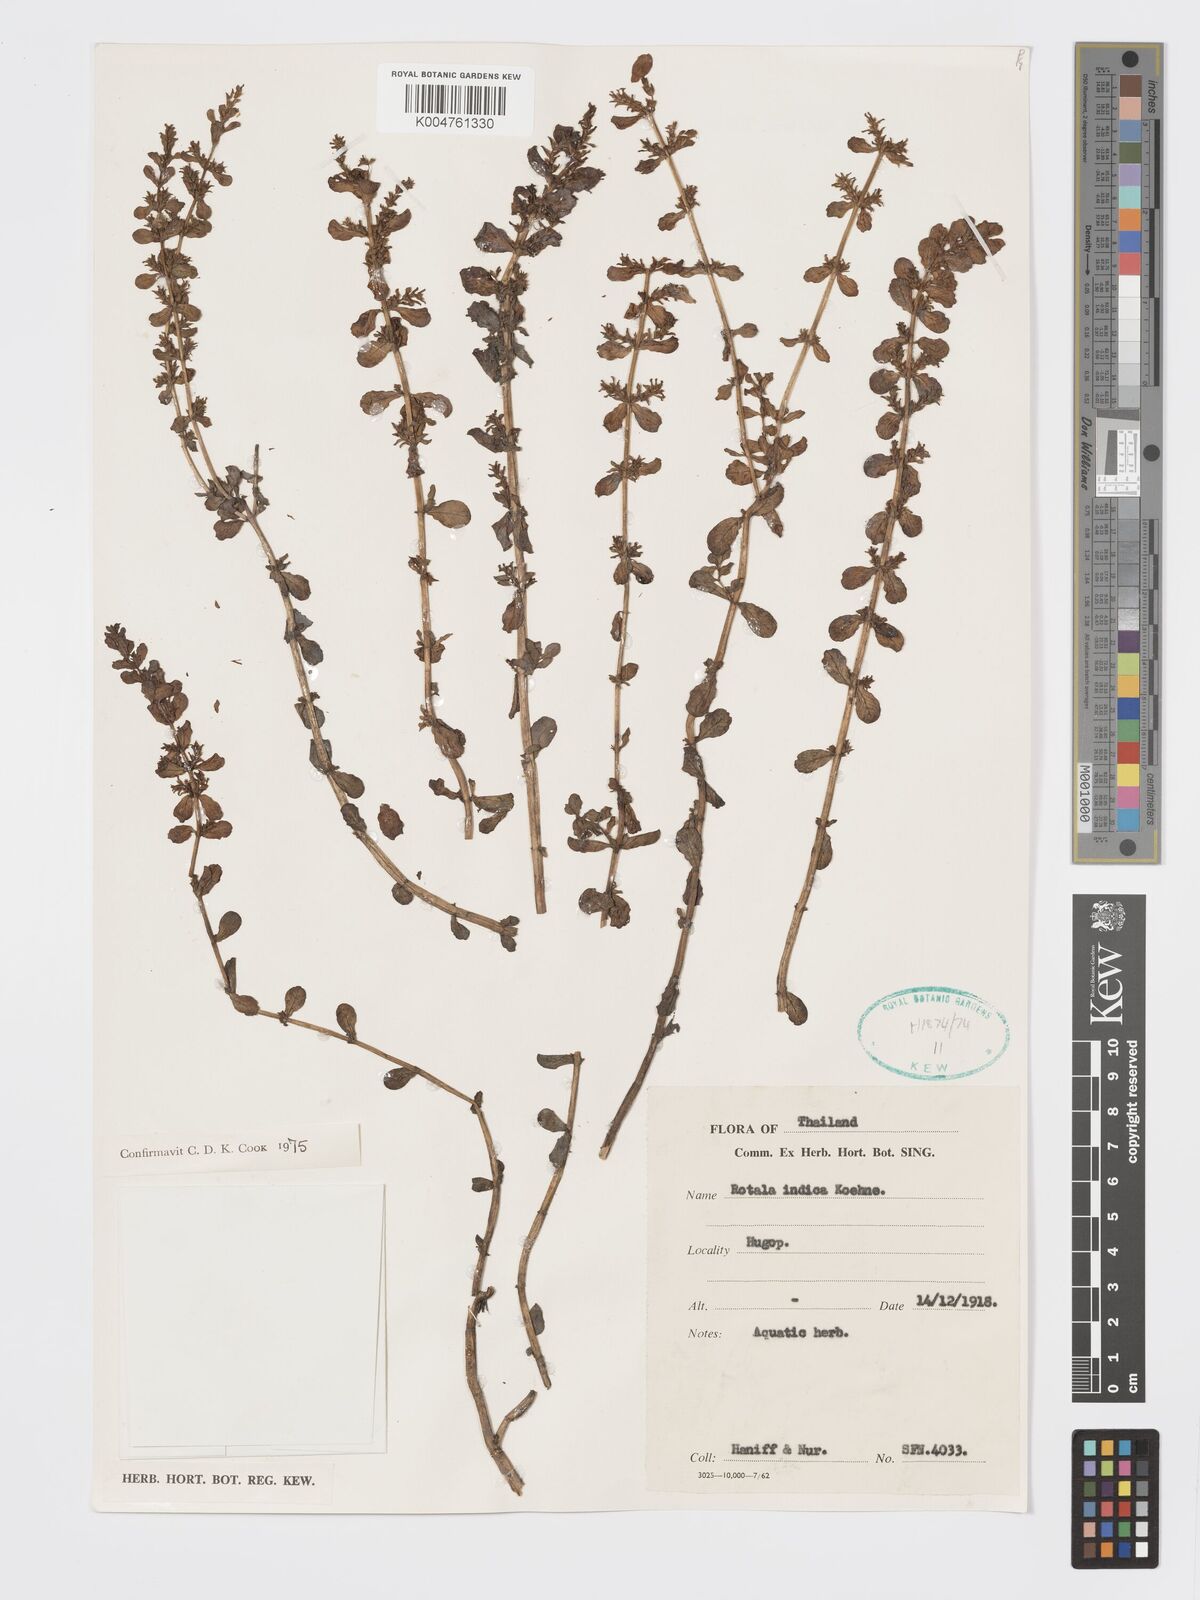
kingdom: Plantae
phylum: Tracheophyta
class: Magnoliopsida
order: Myrtales
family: Lythraceae
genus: Rotala
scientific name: Rotala indica
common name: Indian toothcup
